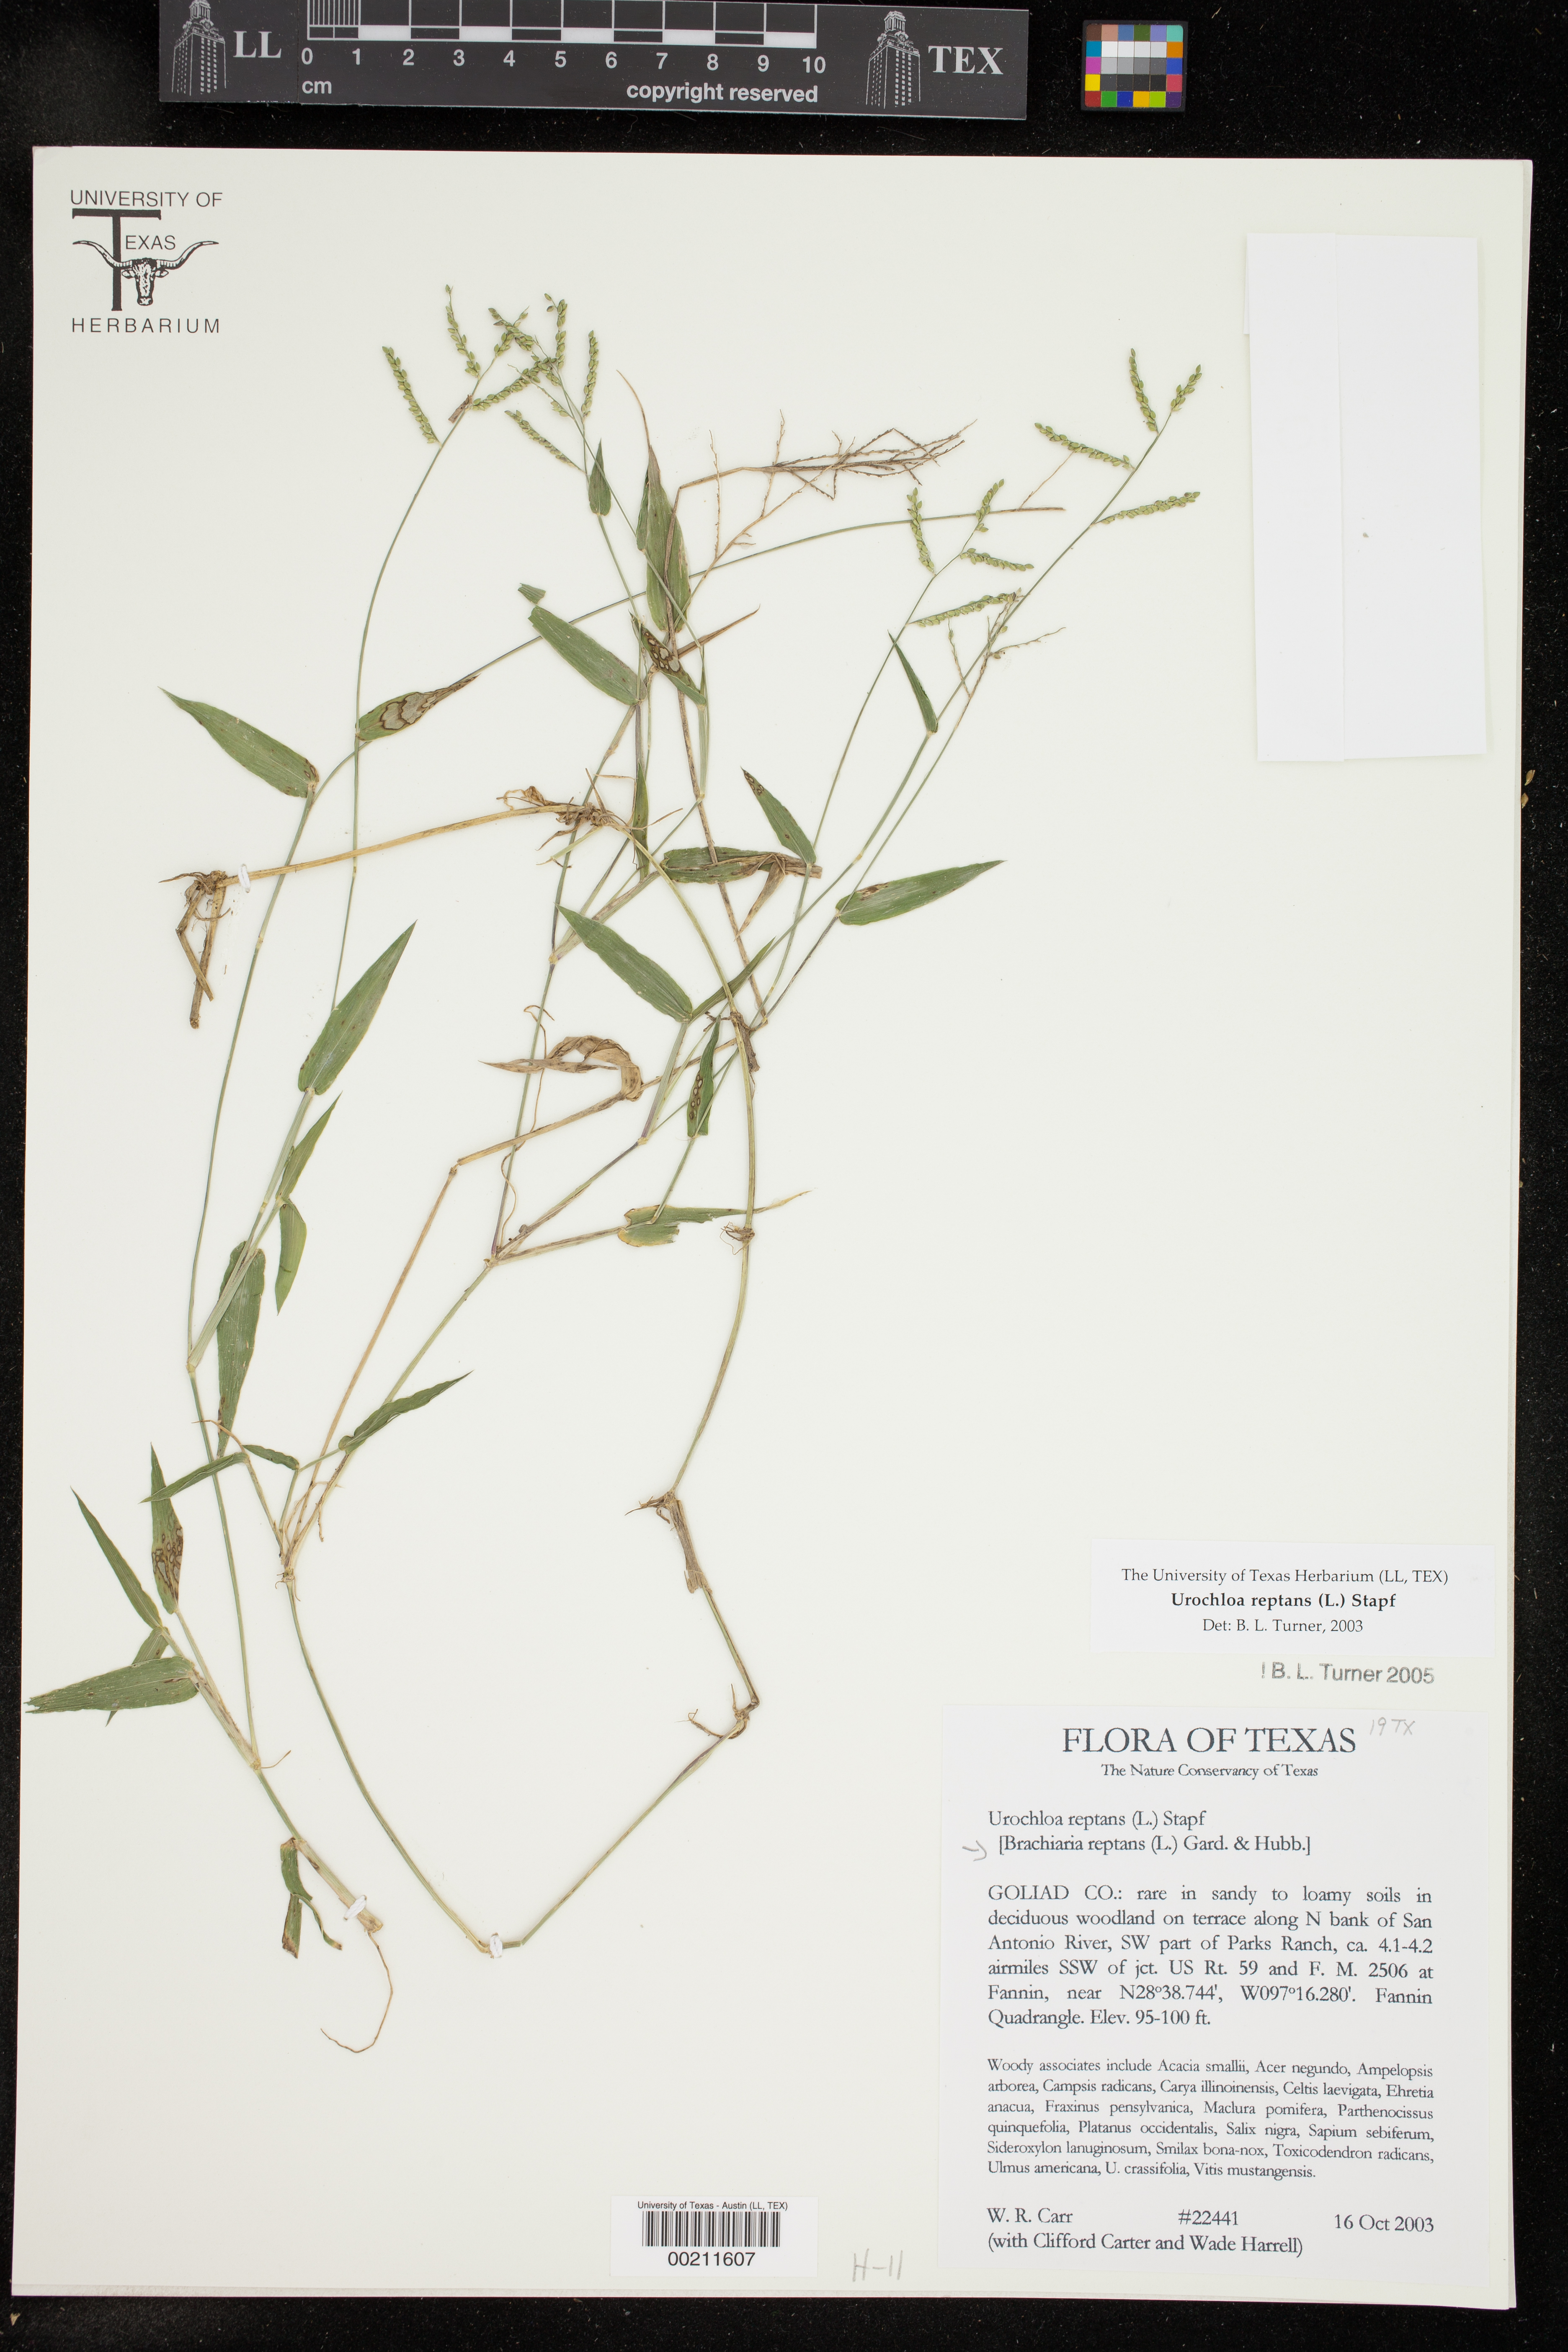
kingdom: Plantae
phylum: Tracheophyta
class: Liliopsida
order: Poales
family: Poaceae
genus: Urochloa
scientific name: Urochloa reptans
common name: Sprawling signalgrass
